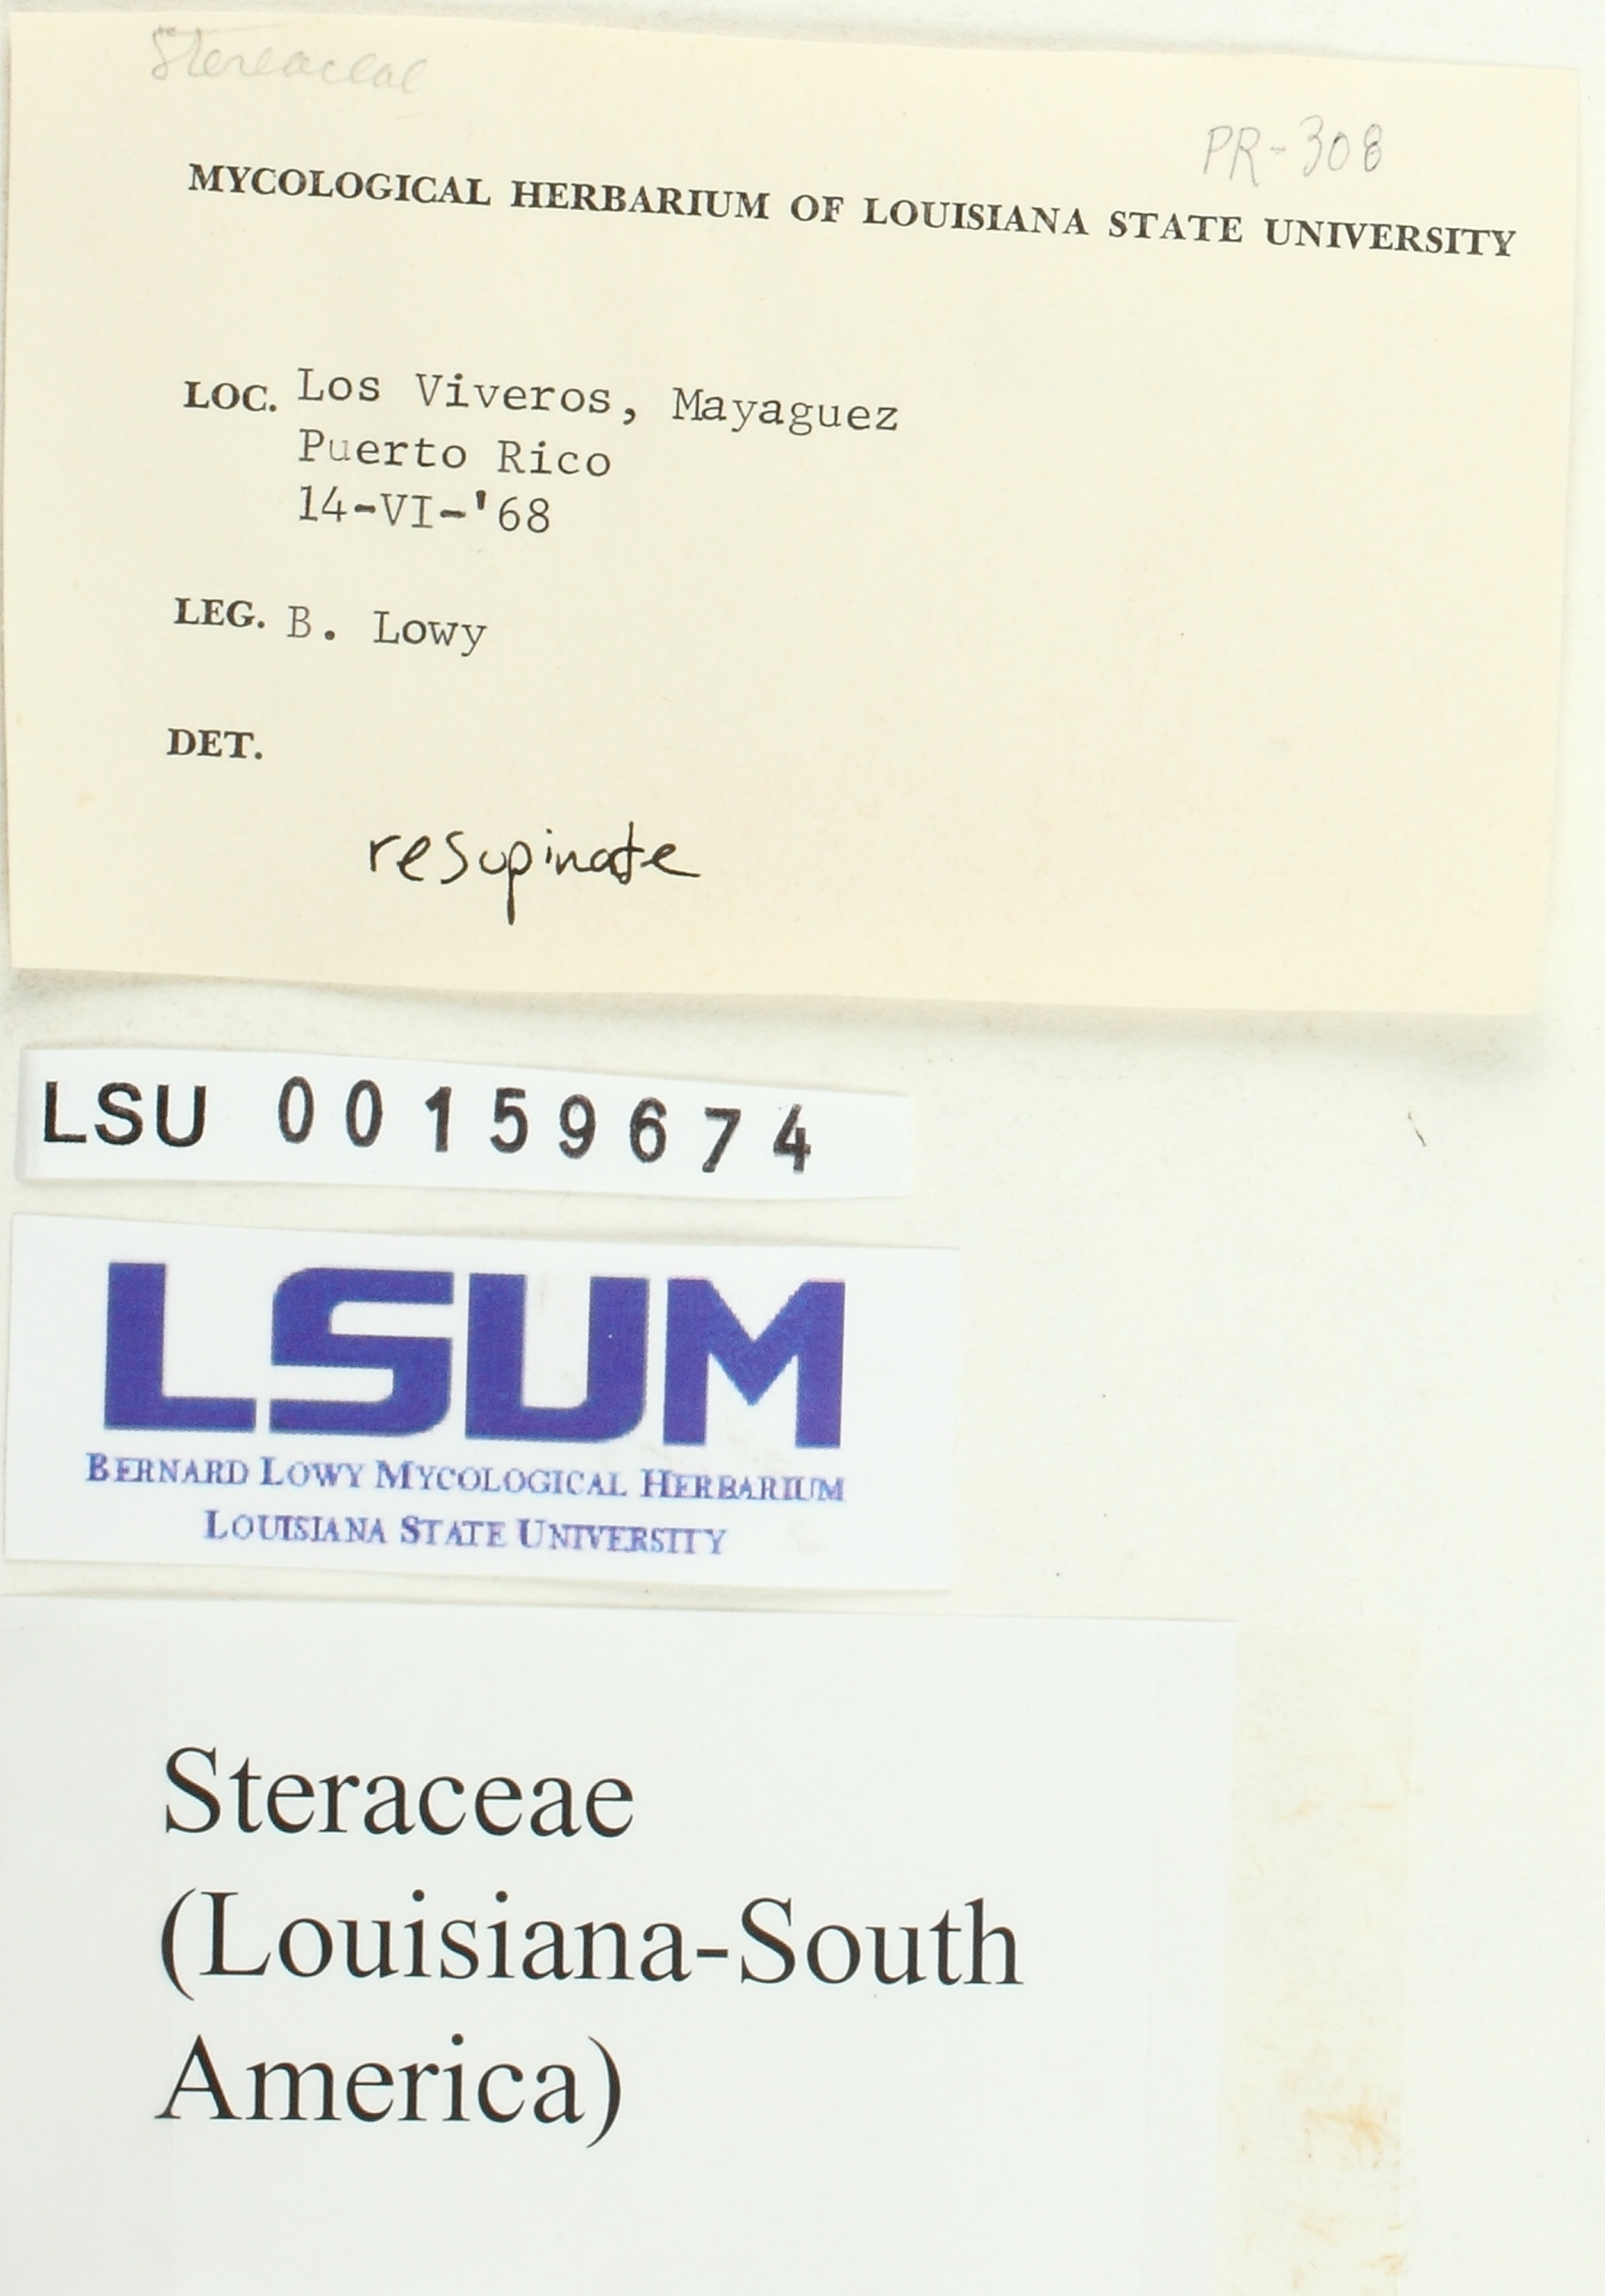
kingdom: Fungi
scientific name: Fungi
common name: Fungi
